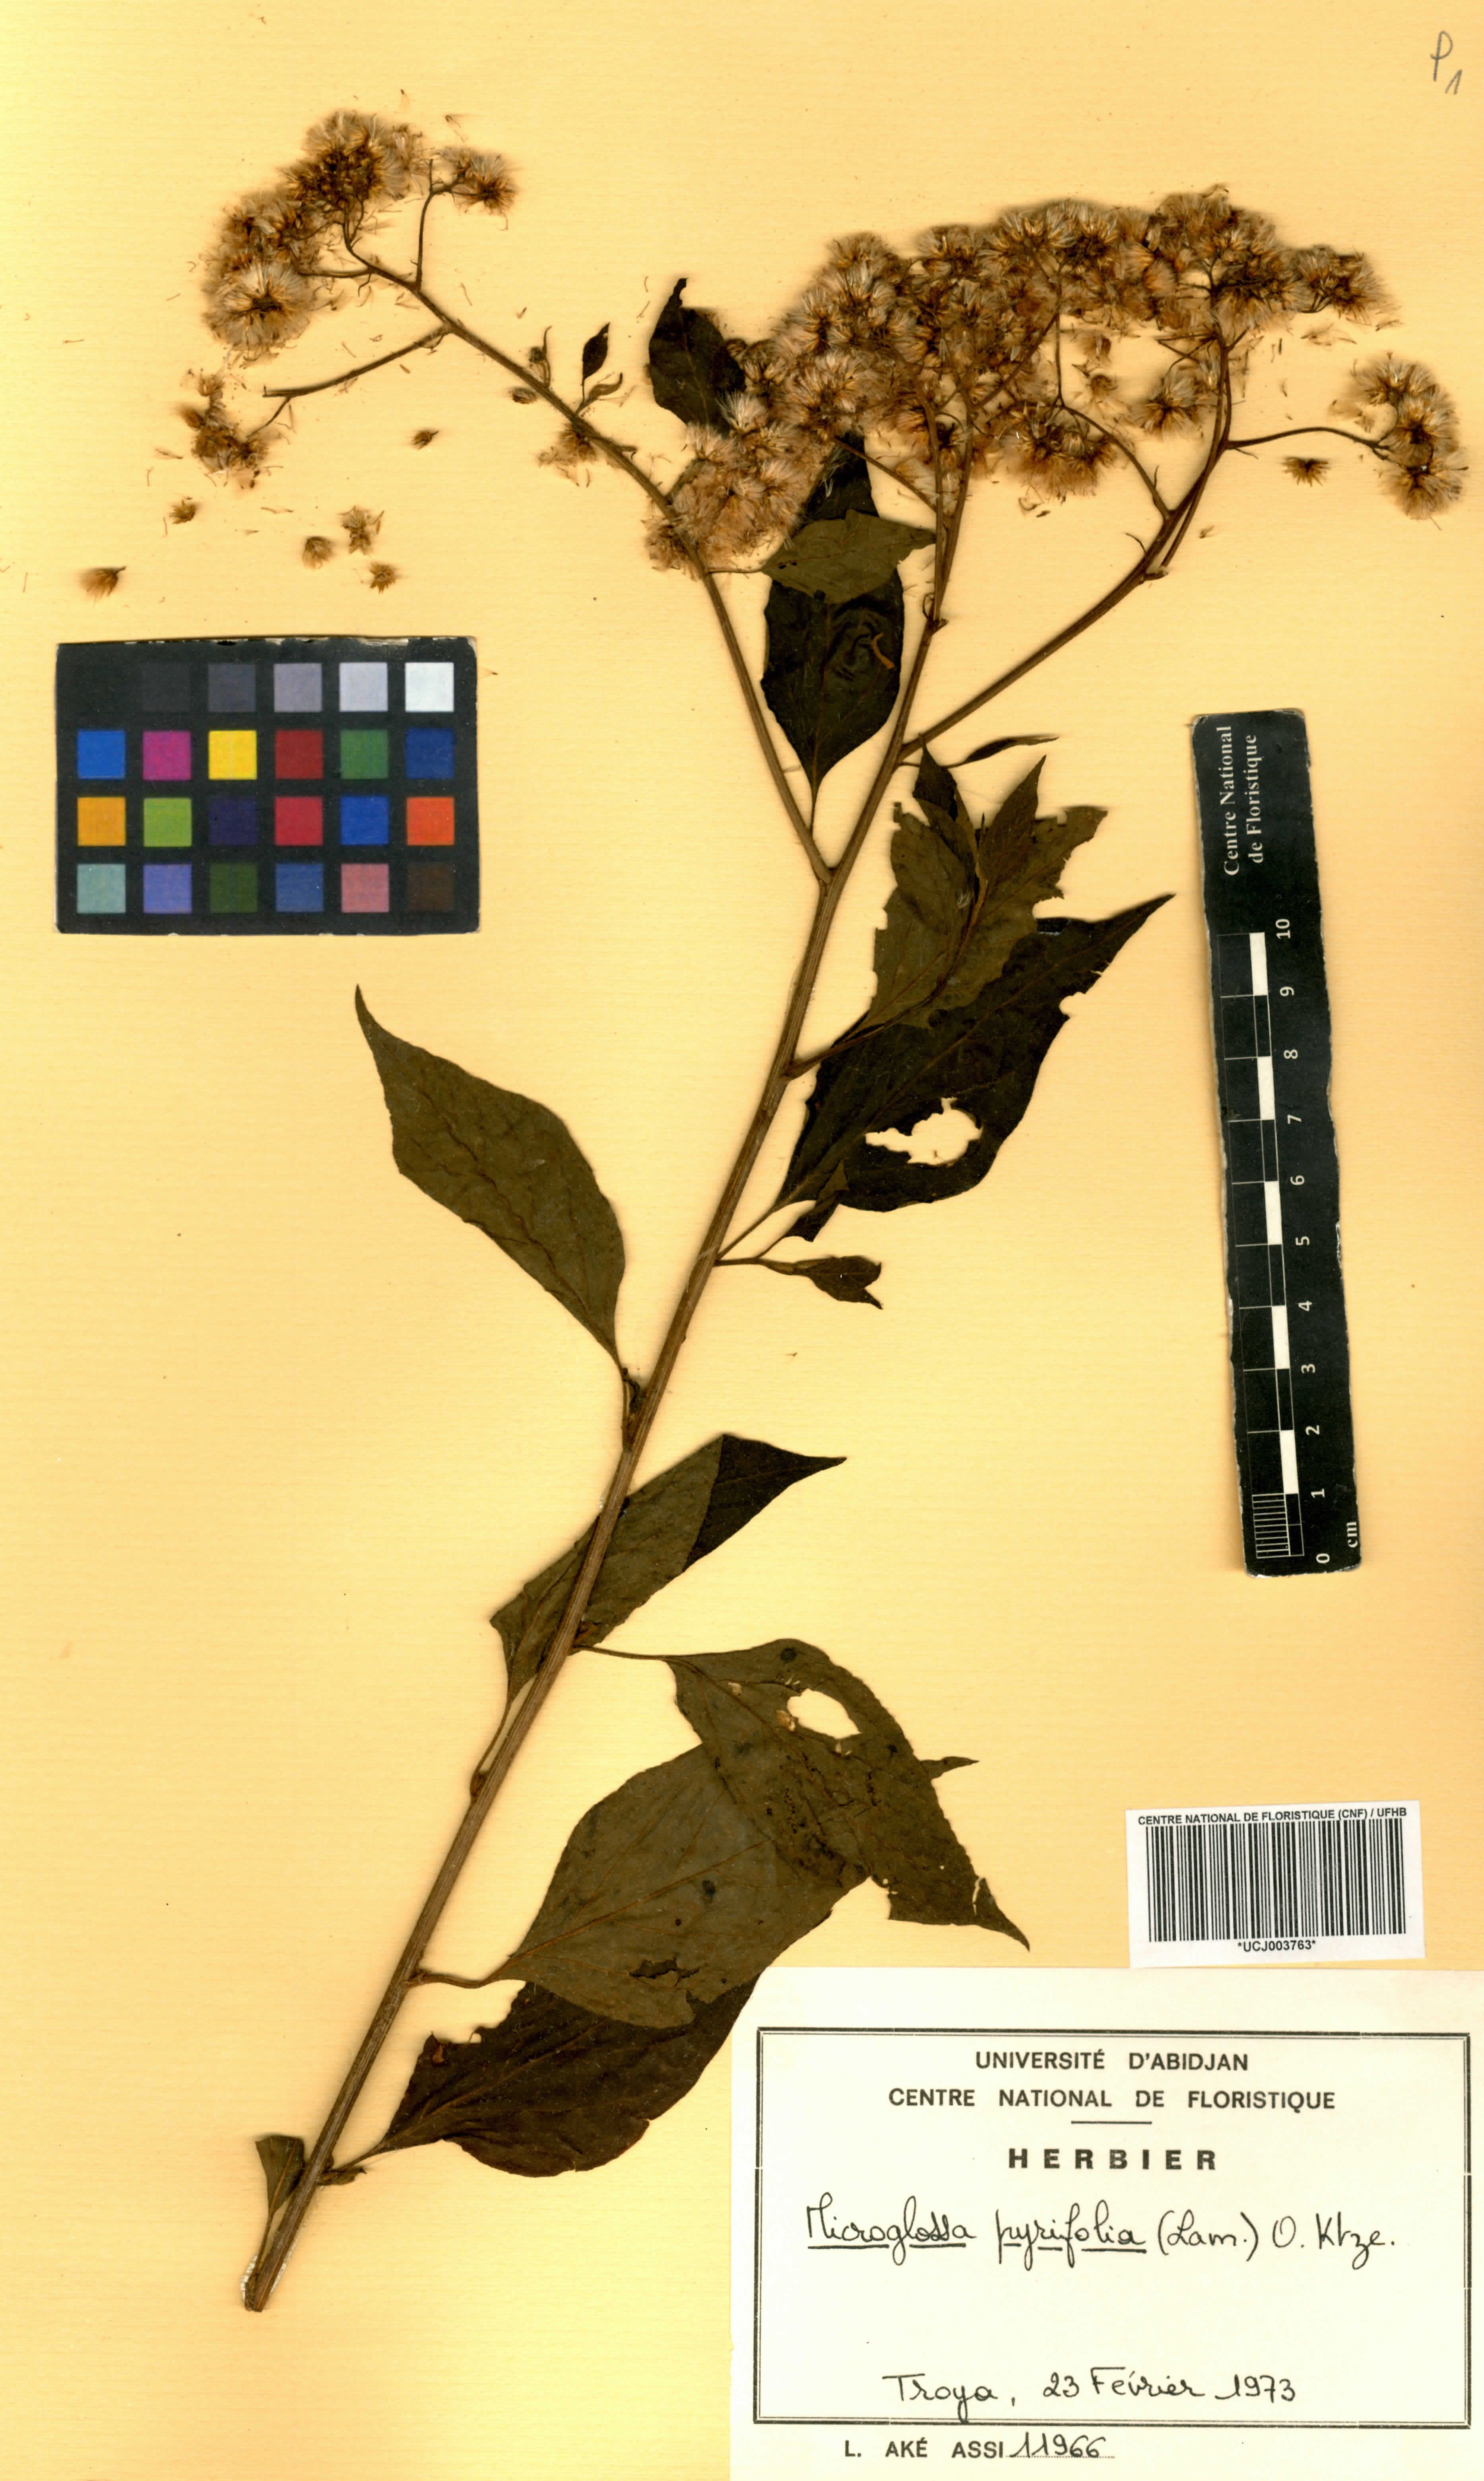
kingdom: Plantae
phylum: Tracheophyta
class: Magnoliopsida
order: Asterales
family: Asteraceae
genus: Microglossa
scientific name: Microglossa pyrifolia
